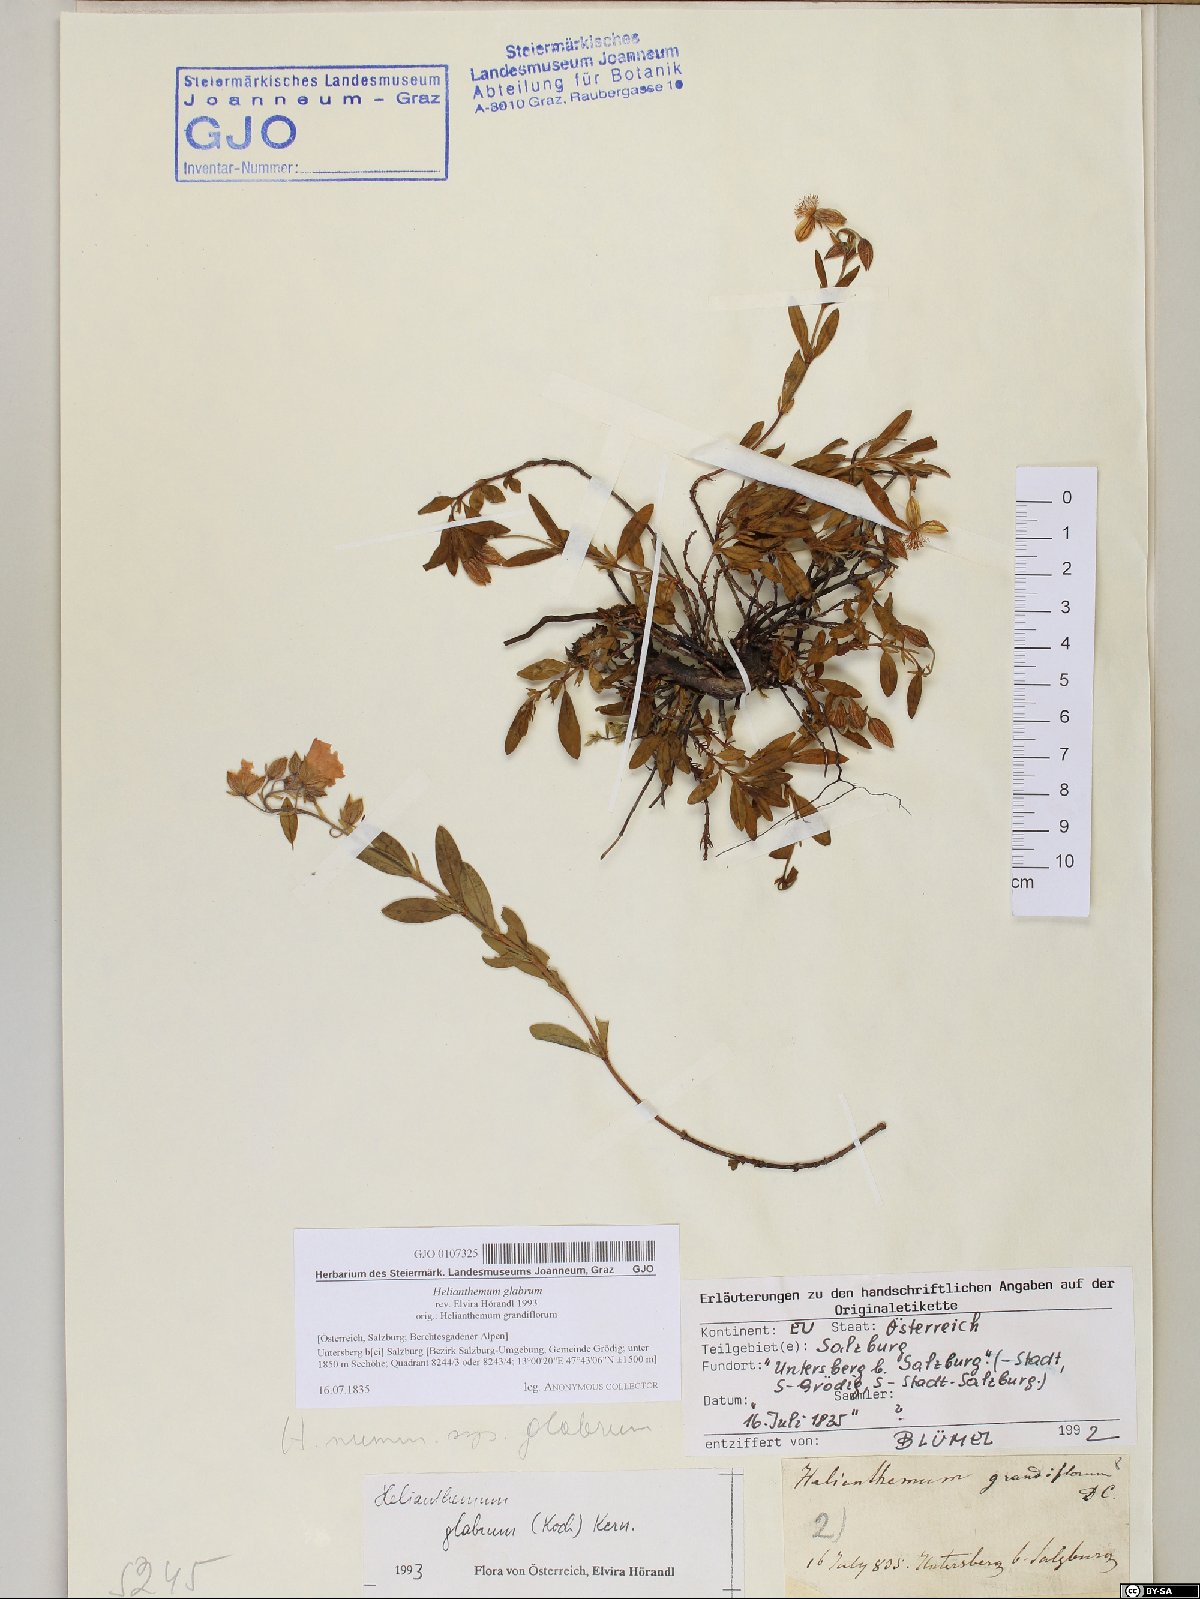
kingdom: Plantae
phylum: Tracheophyta
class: Magnoliopsida
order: Malvales
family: Cistaceae
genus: Helianthemum
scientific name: Helianthemum nummularium
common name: Common rock-rose
